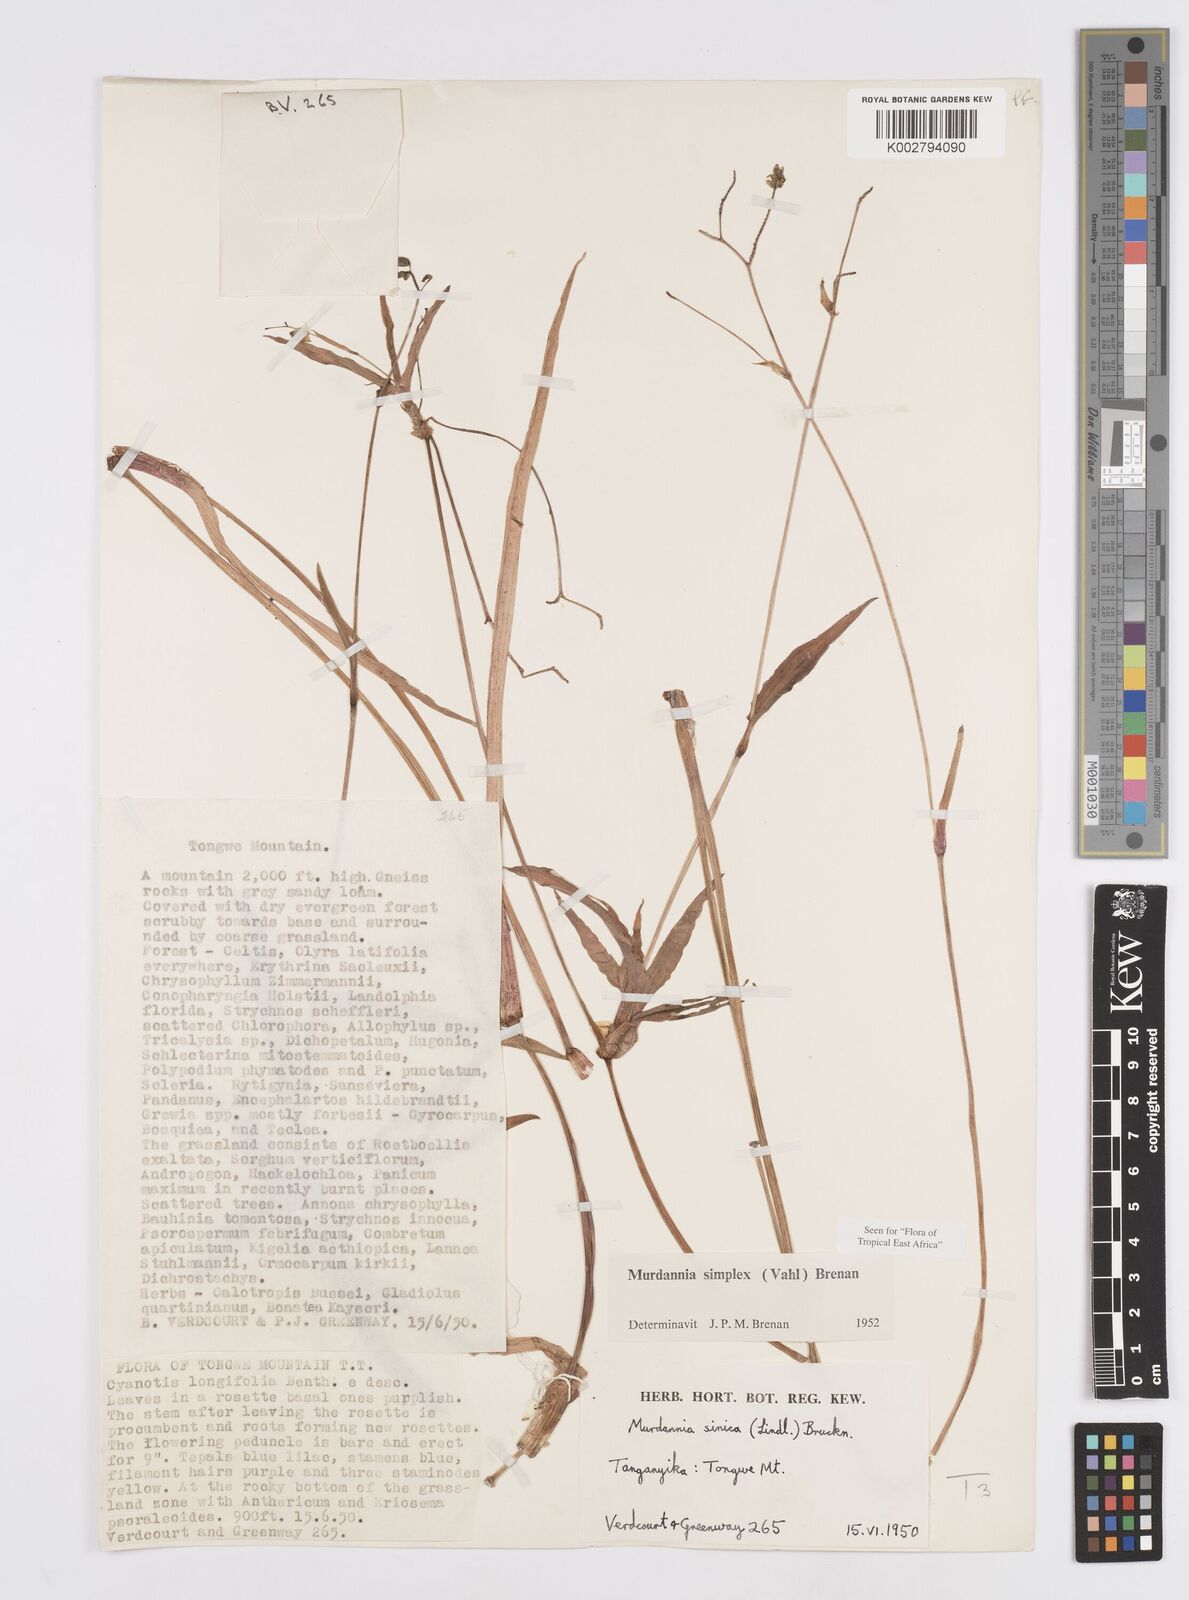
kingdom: Plantae
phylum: Tracheophyta
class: Liliopsida
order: Commelinales
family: Commelinaceae
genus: Murdannia
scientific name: Murdannia simplex
